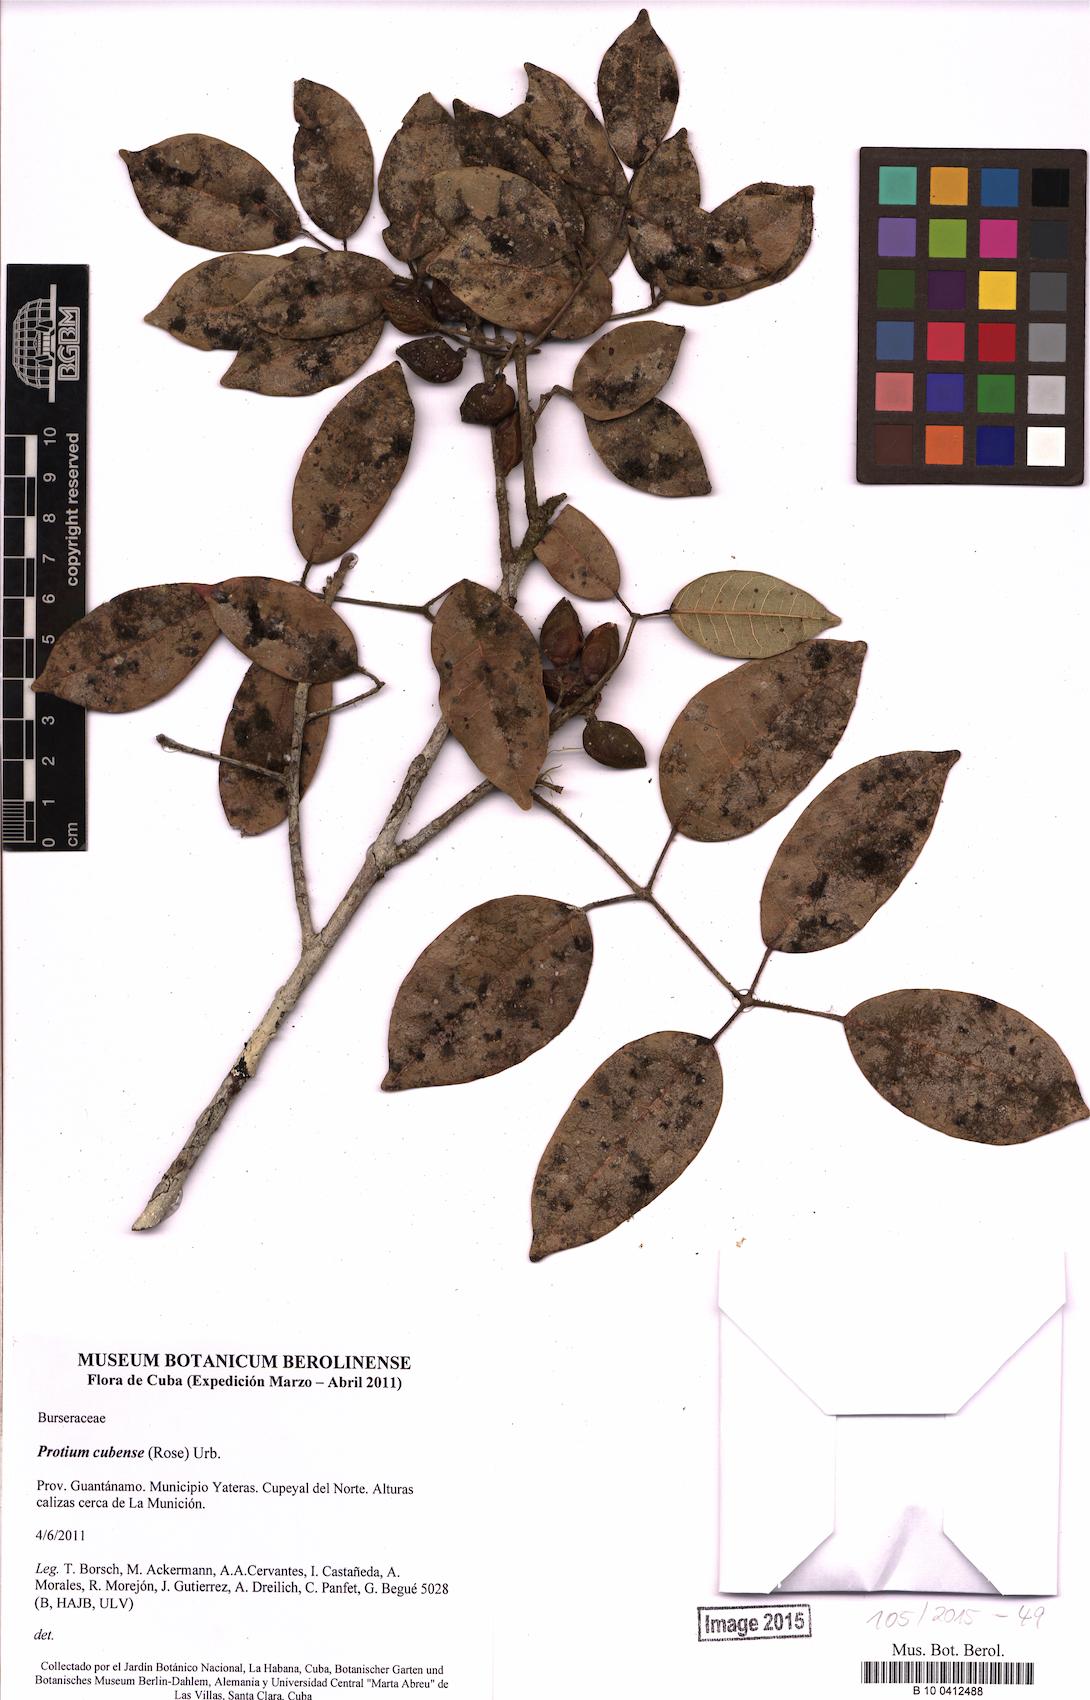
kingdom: Plantae
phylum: Tracheophyta
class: Magnoliopsida
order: Sapindales
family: Burseraceae
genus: Protium
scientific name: Protium cubense
